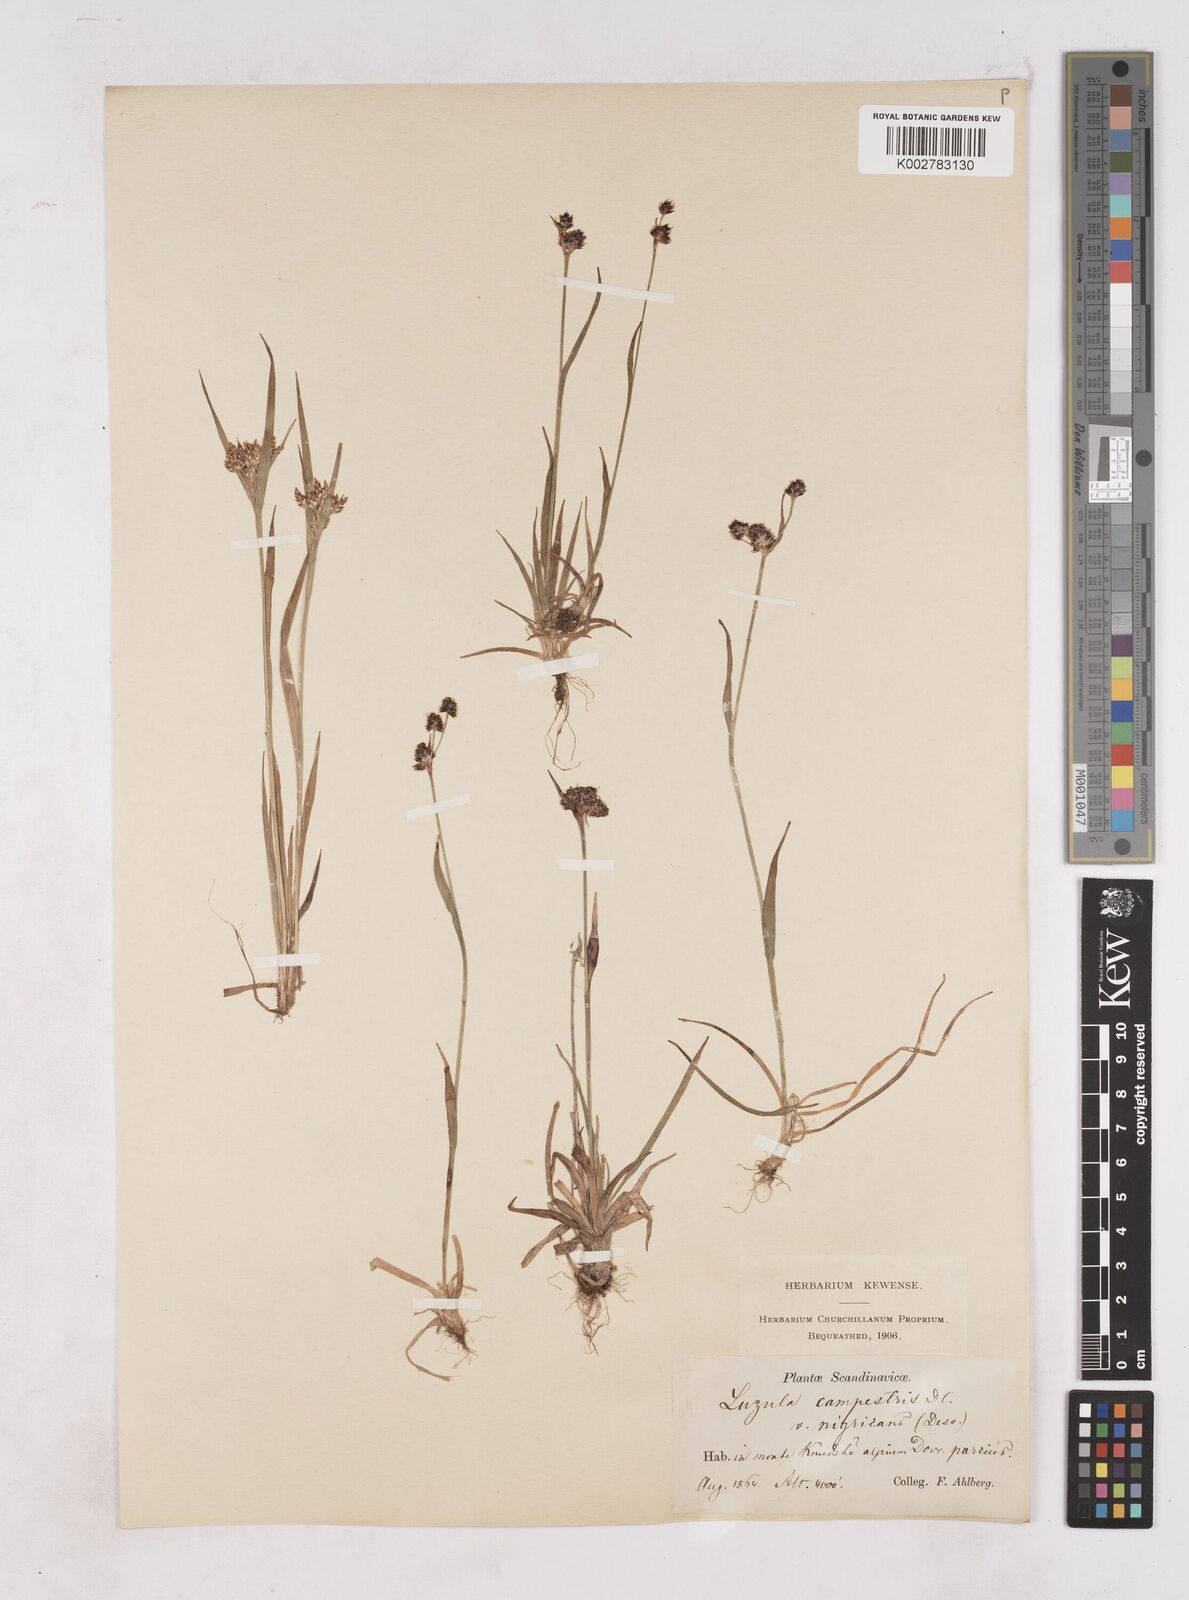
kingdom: Plantae
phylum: Tracheophyta
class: Liliopsida
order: Poales
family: Juncaceae
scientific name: Juncaceae
